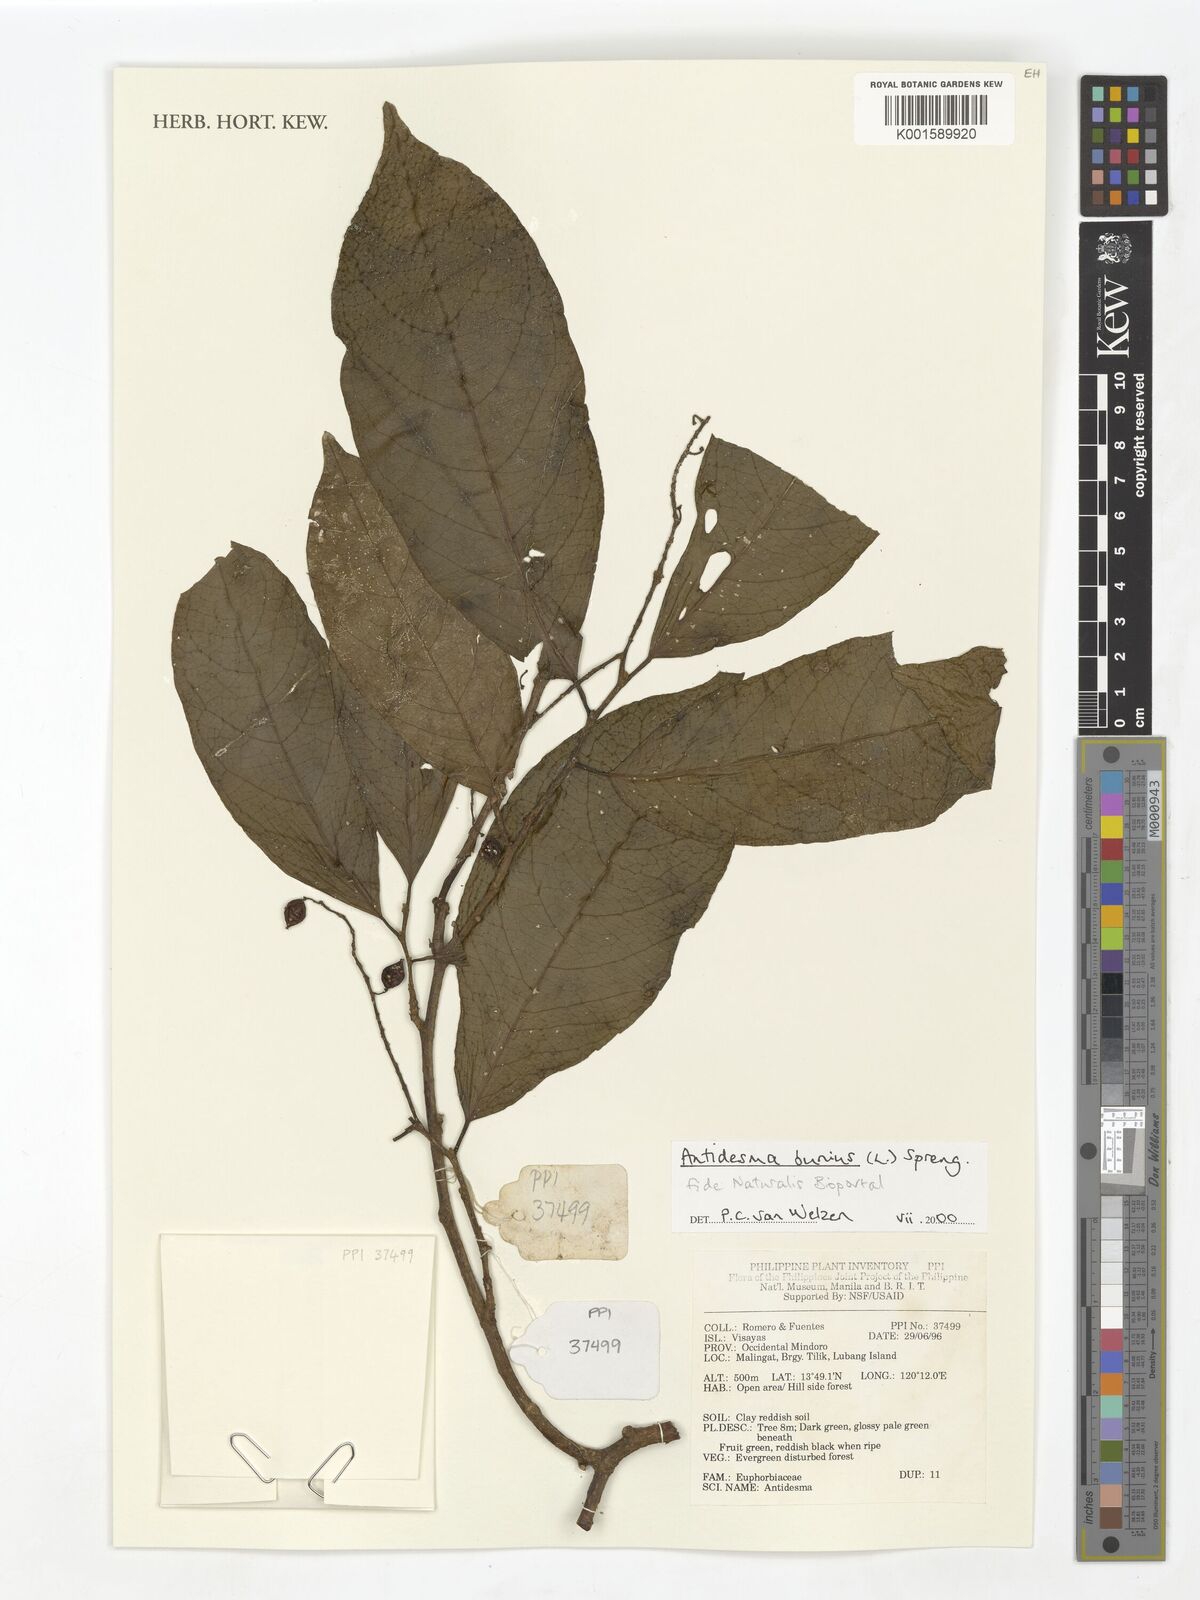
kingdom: Plantae
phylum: Tracheophyta
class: Magnoliopsida
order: Malpighiales
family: Phyllanthaceae
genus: Antidesma
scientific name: Antidesma bunius
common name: Chinese-laurel
